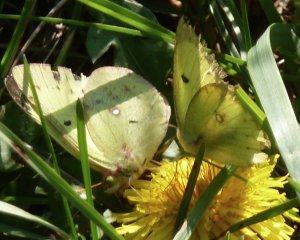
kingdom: Animalia
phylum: Arthropoda
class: Insecta
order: Lepidoptera
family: Pieridae
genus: Colias
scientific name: Colias philodice
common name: Clouded Sulphur
